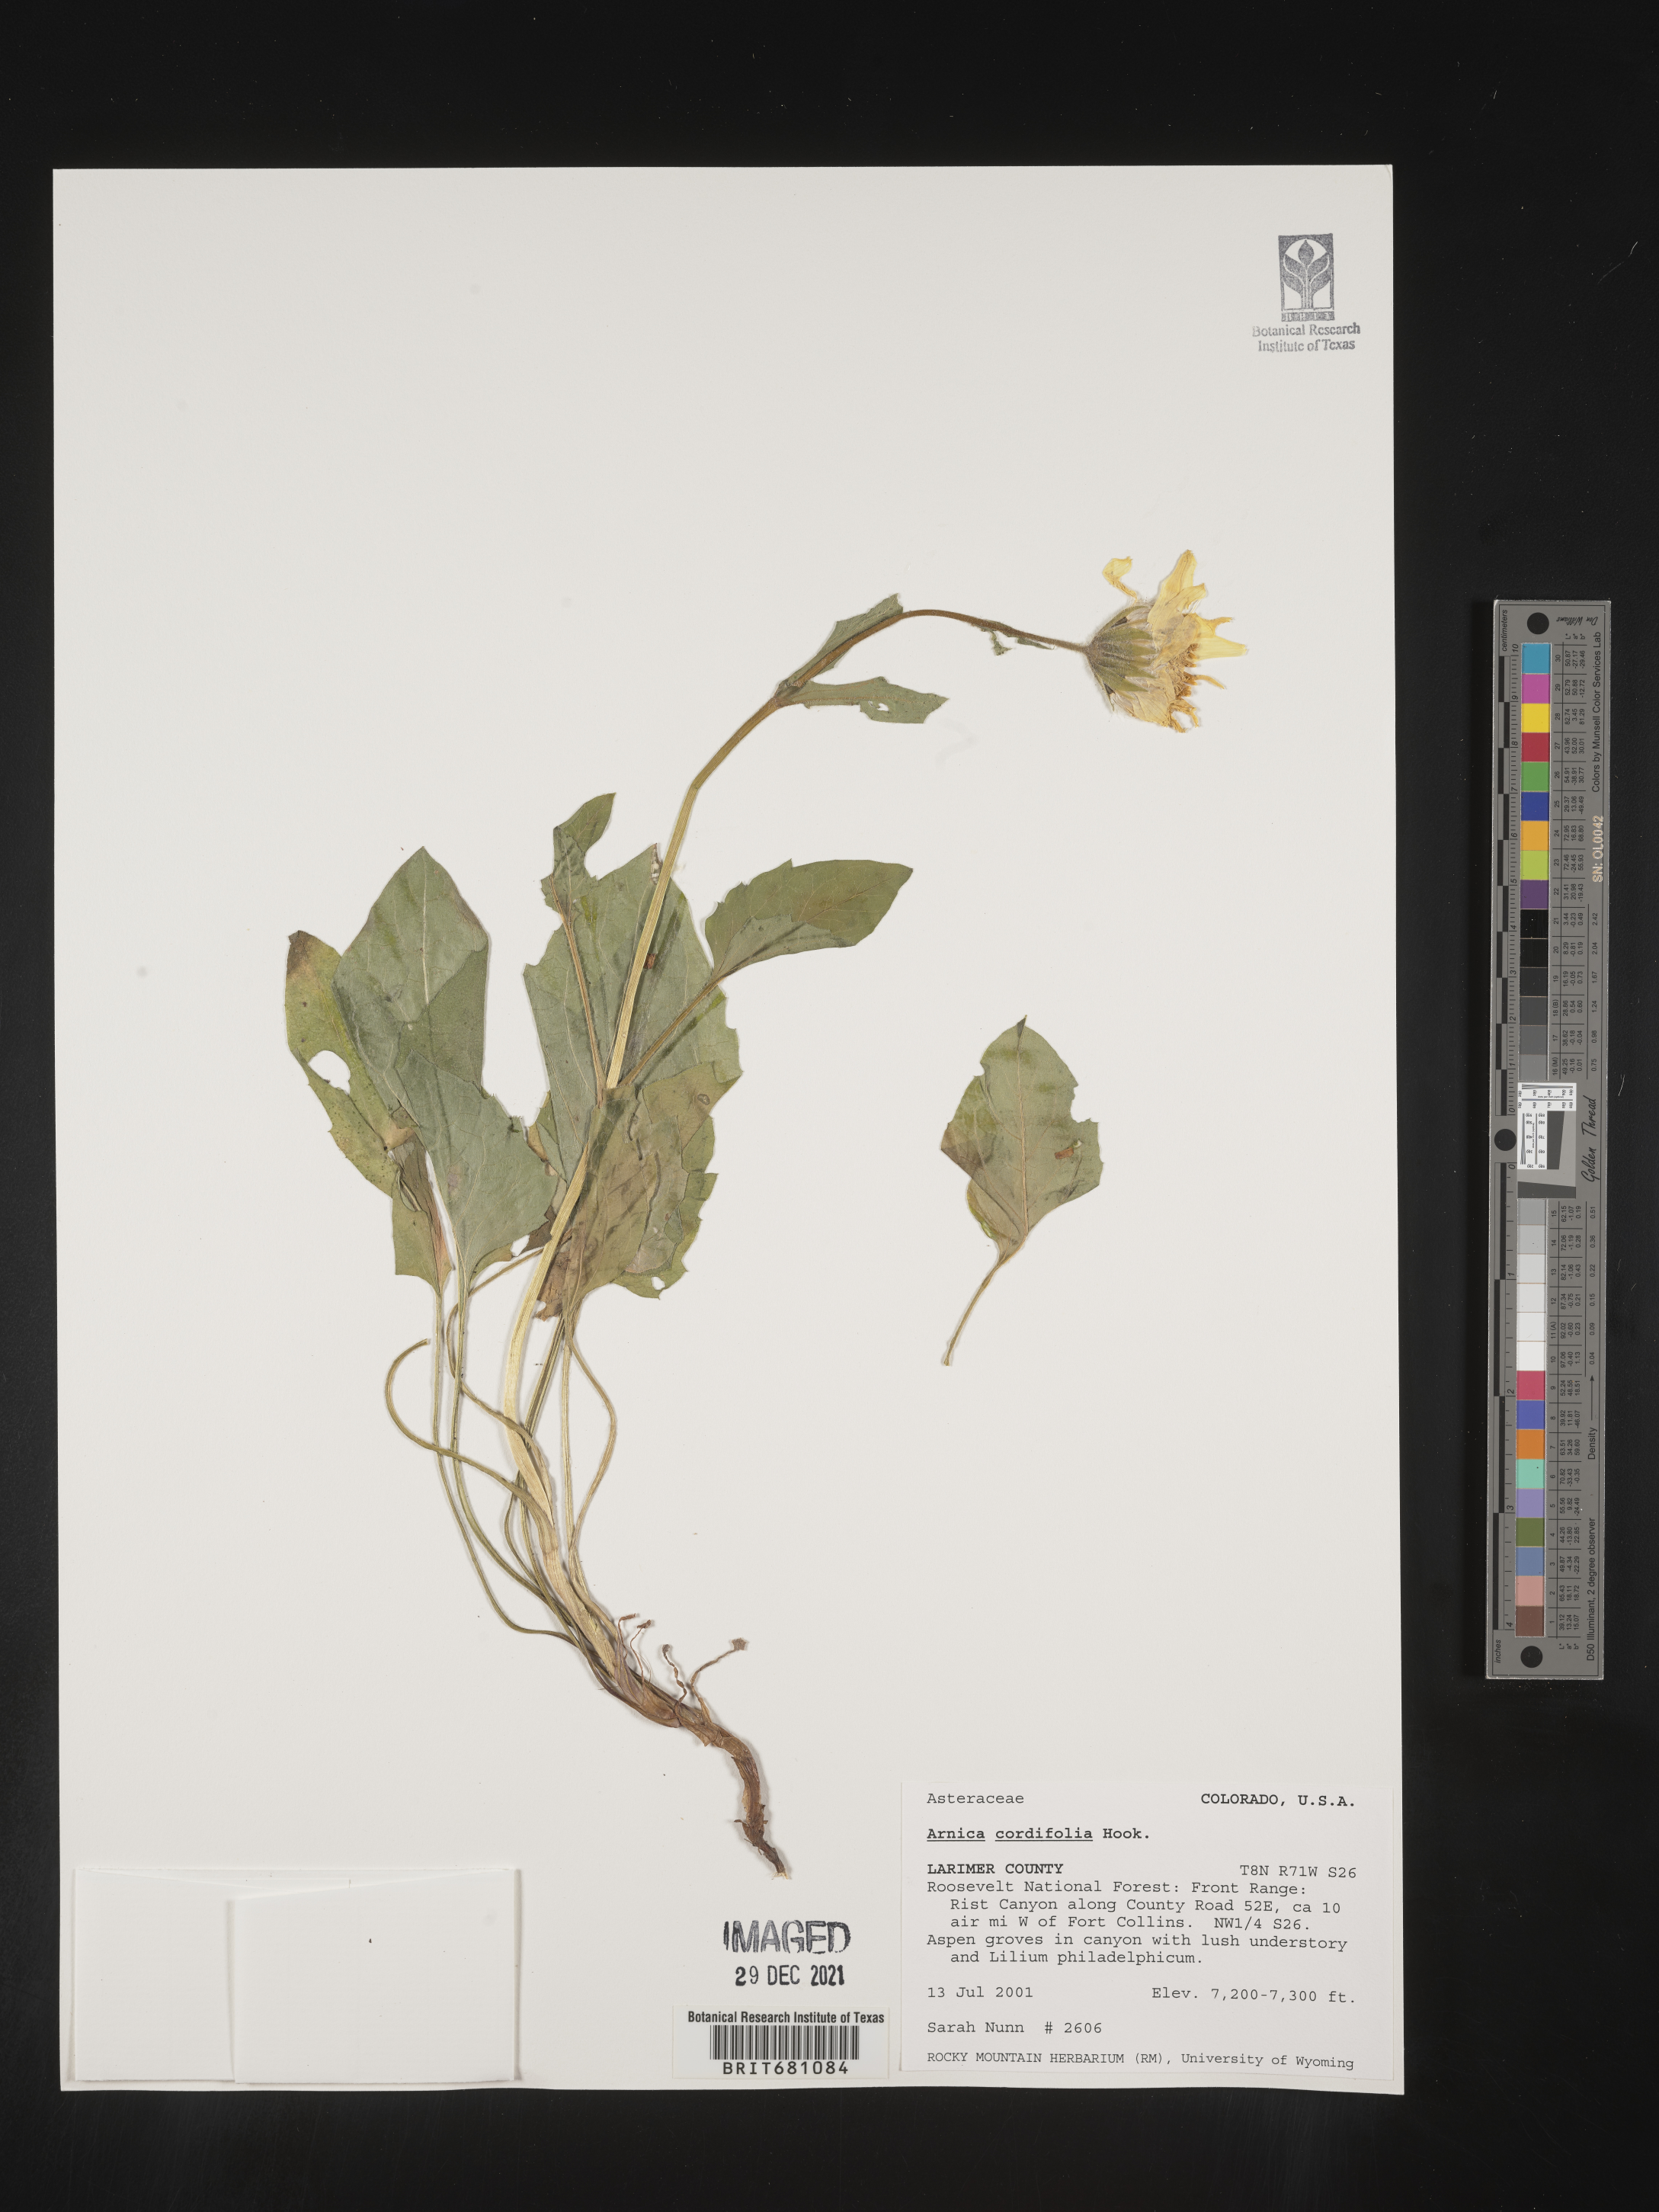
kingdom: Plantae
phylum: Tracheophyta
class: Magnoliopsida
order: Asterales
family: Asteraceae
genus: Arnica
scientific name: Arnica cordifolia
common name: Heart-leaf arnica
